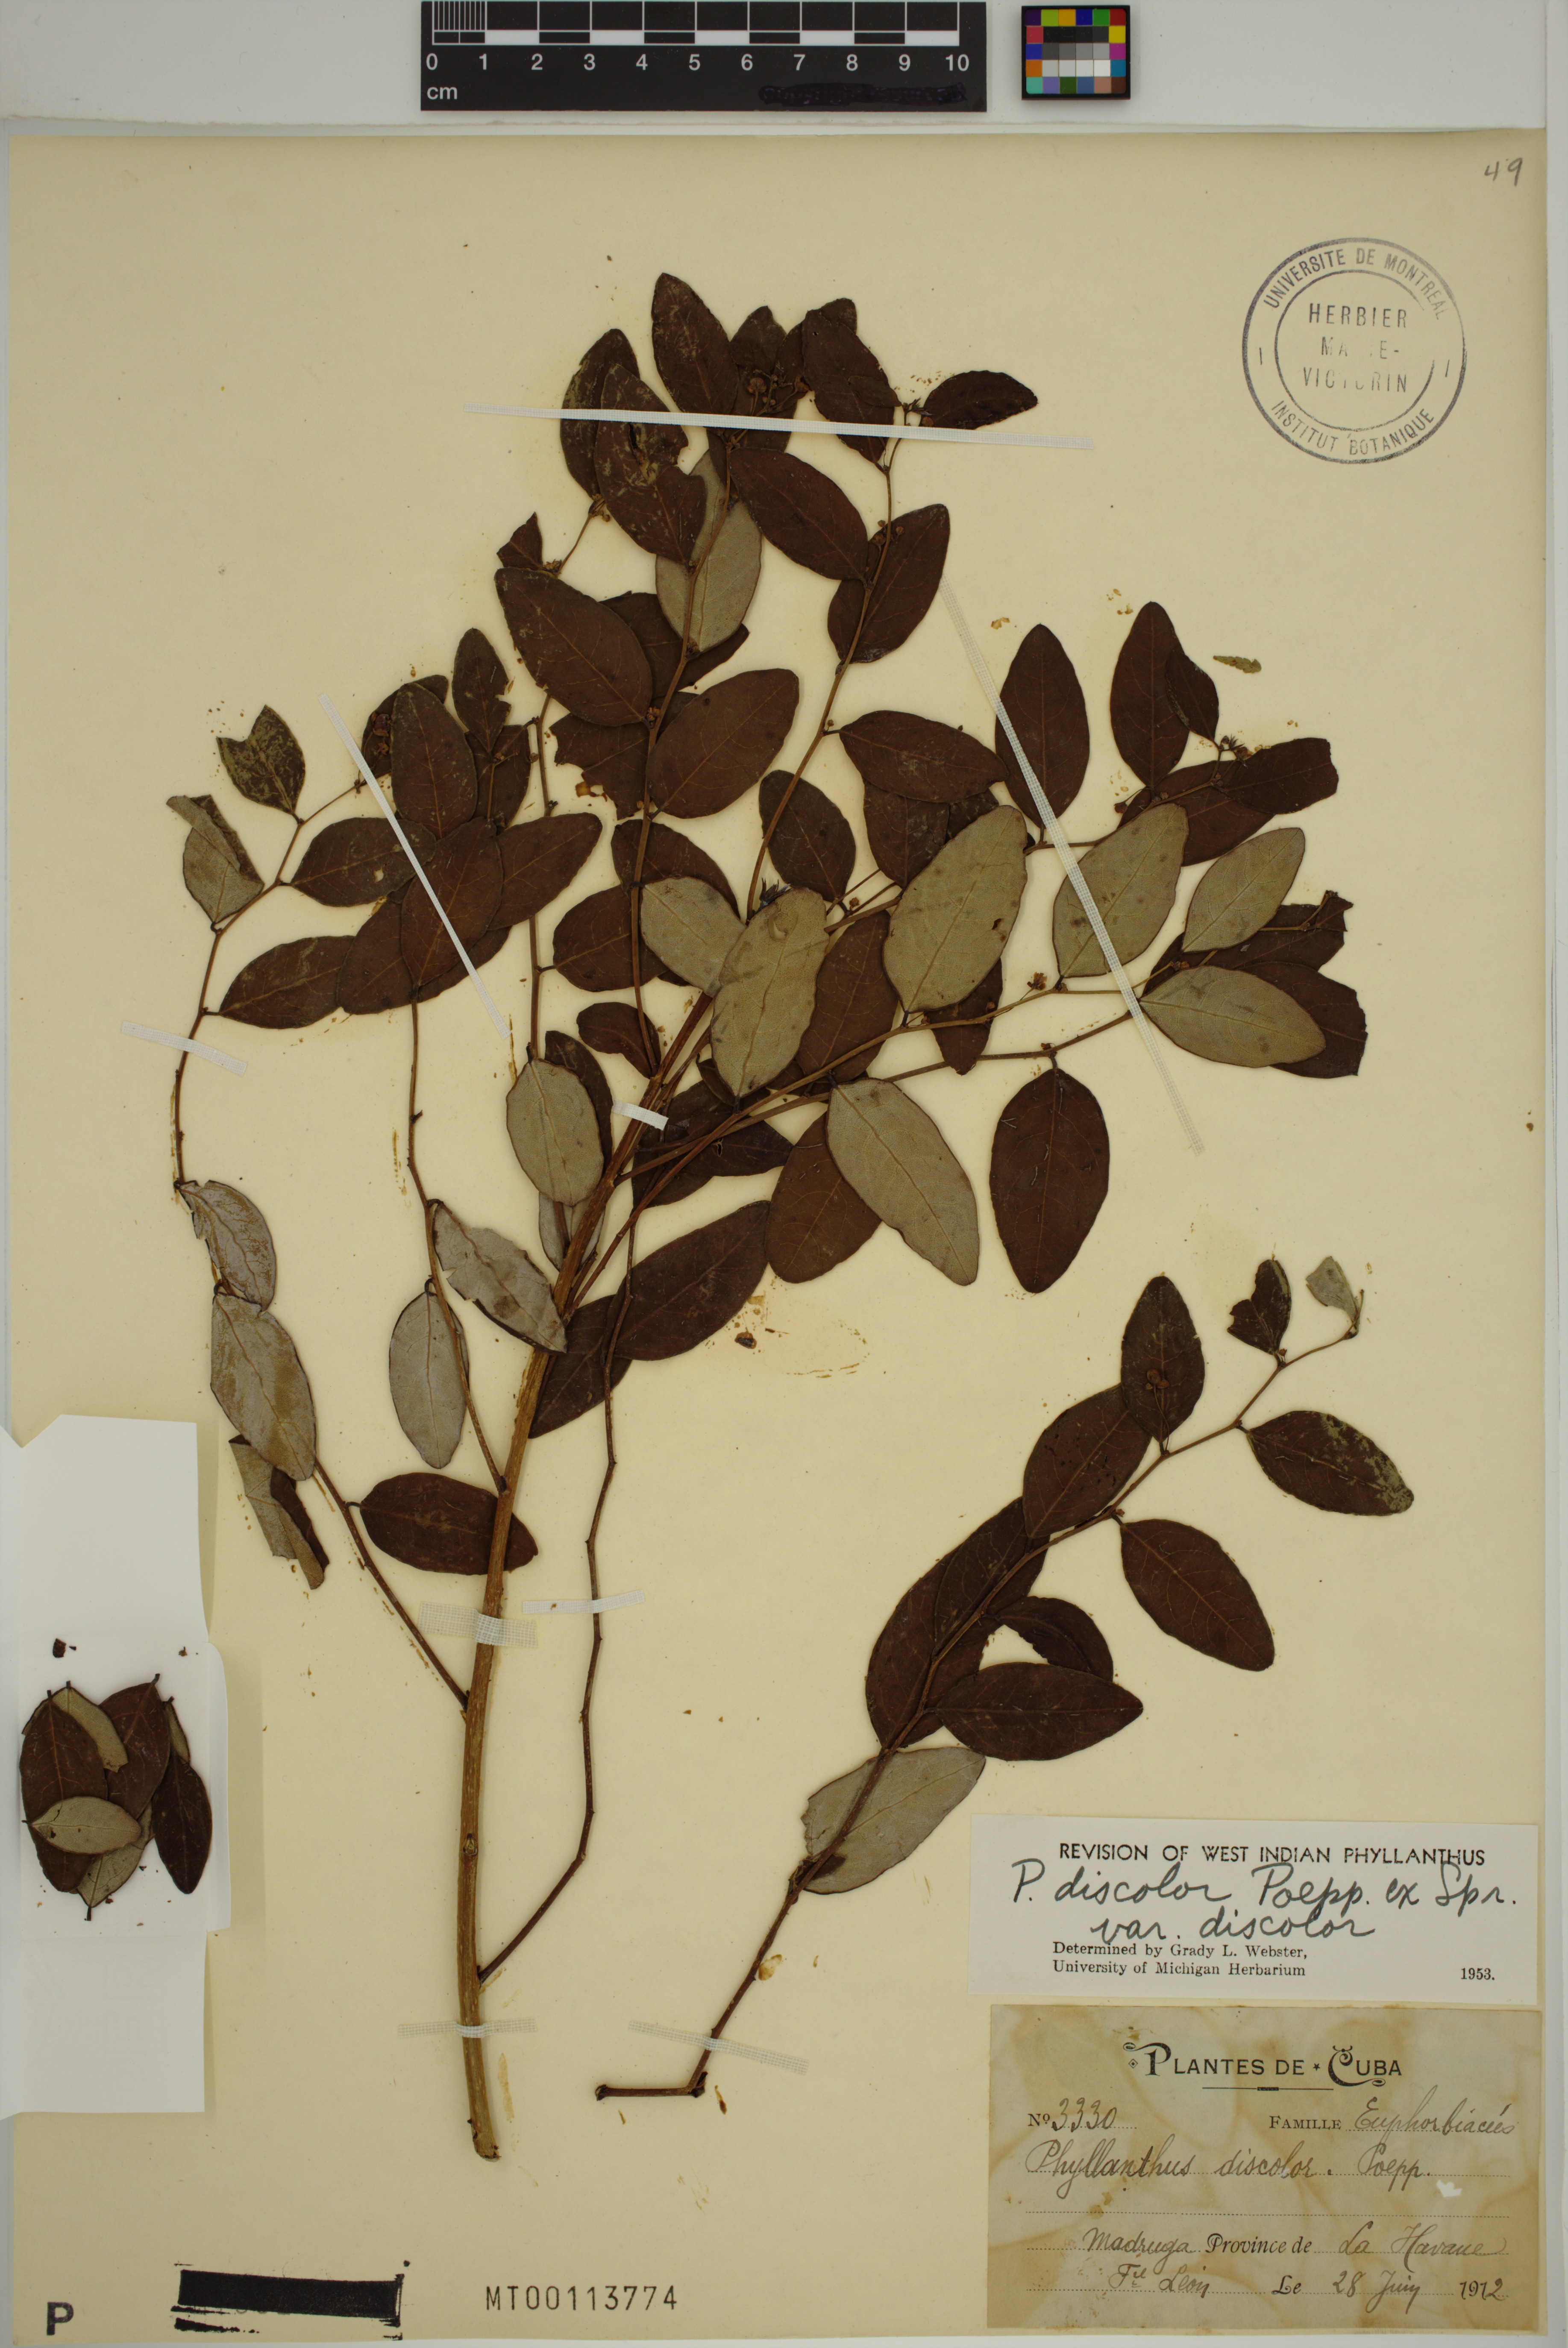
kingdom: Plantae
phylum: Tracheophyta
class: Magnoliopsida
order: Malpighiales
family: Phyllanthaceae
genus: Phyllanthus
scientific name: Phyllanthus discolor
